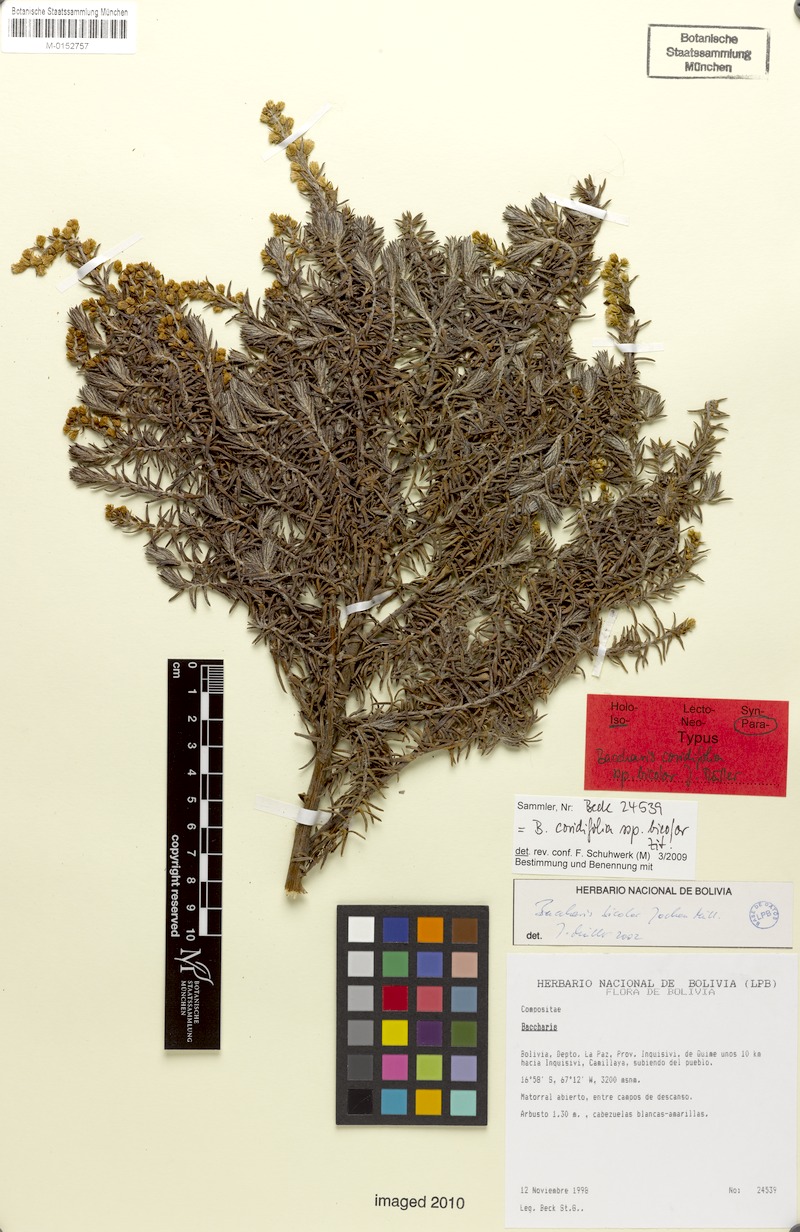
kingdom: Plantae
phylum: Tracheophyta
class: Magnoliopsida
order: Asterales
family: Asteraceae
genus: Baccharis
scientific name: Baccharis bicolor
